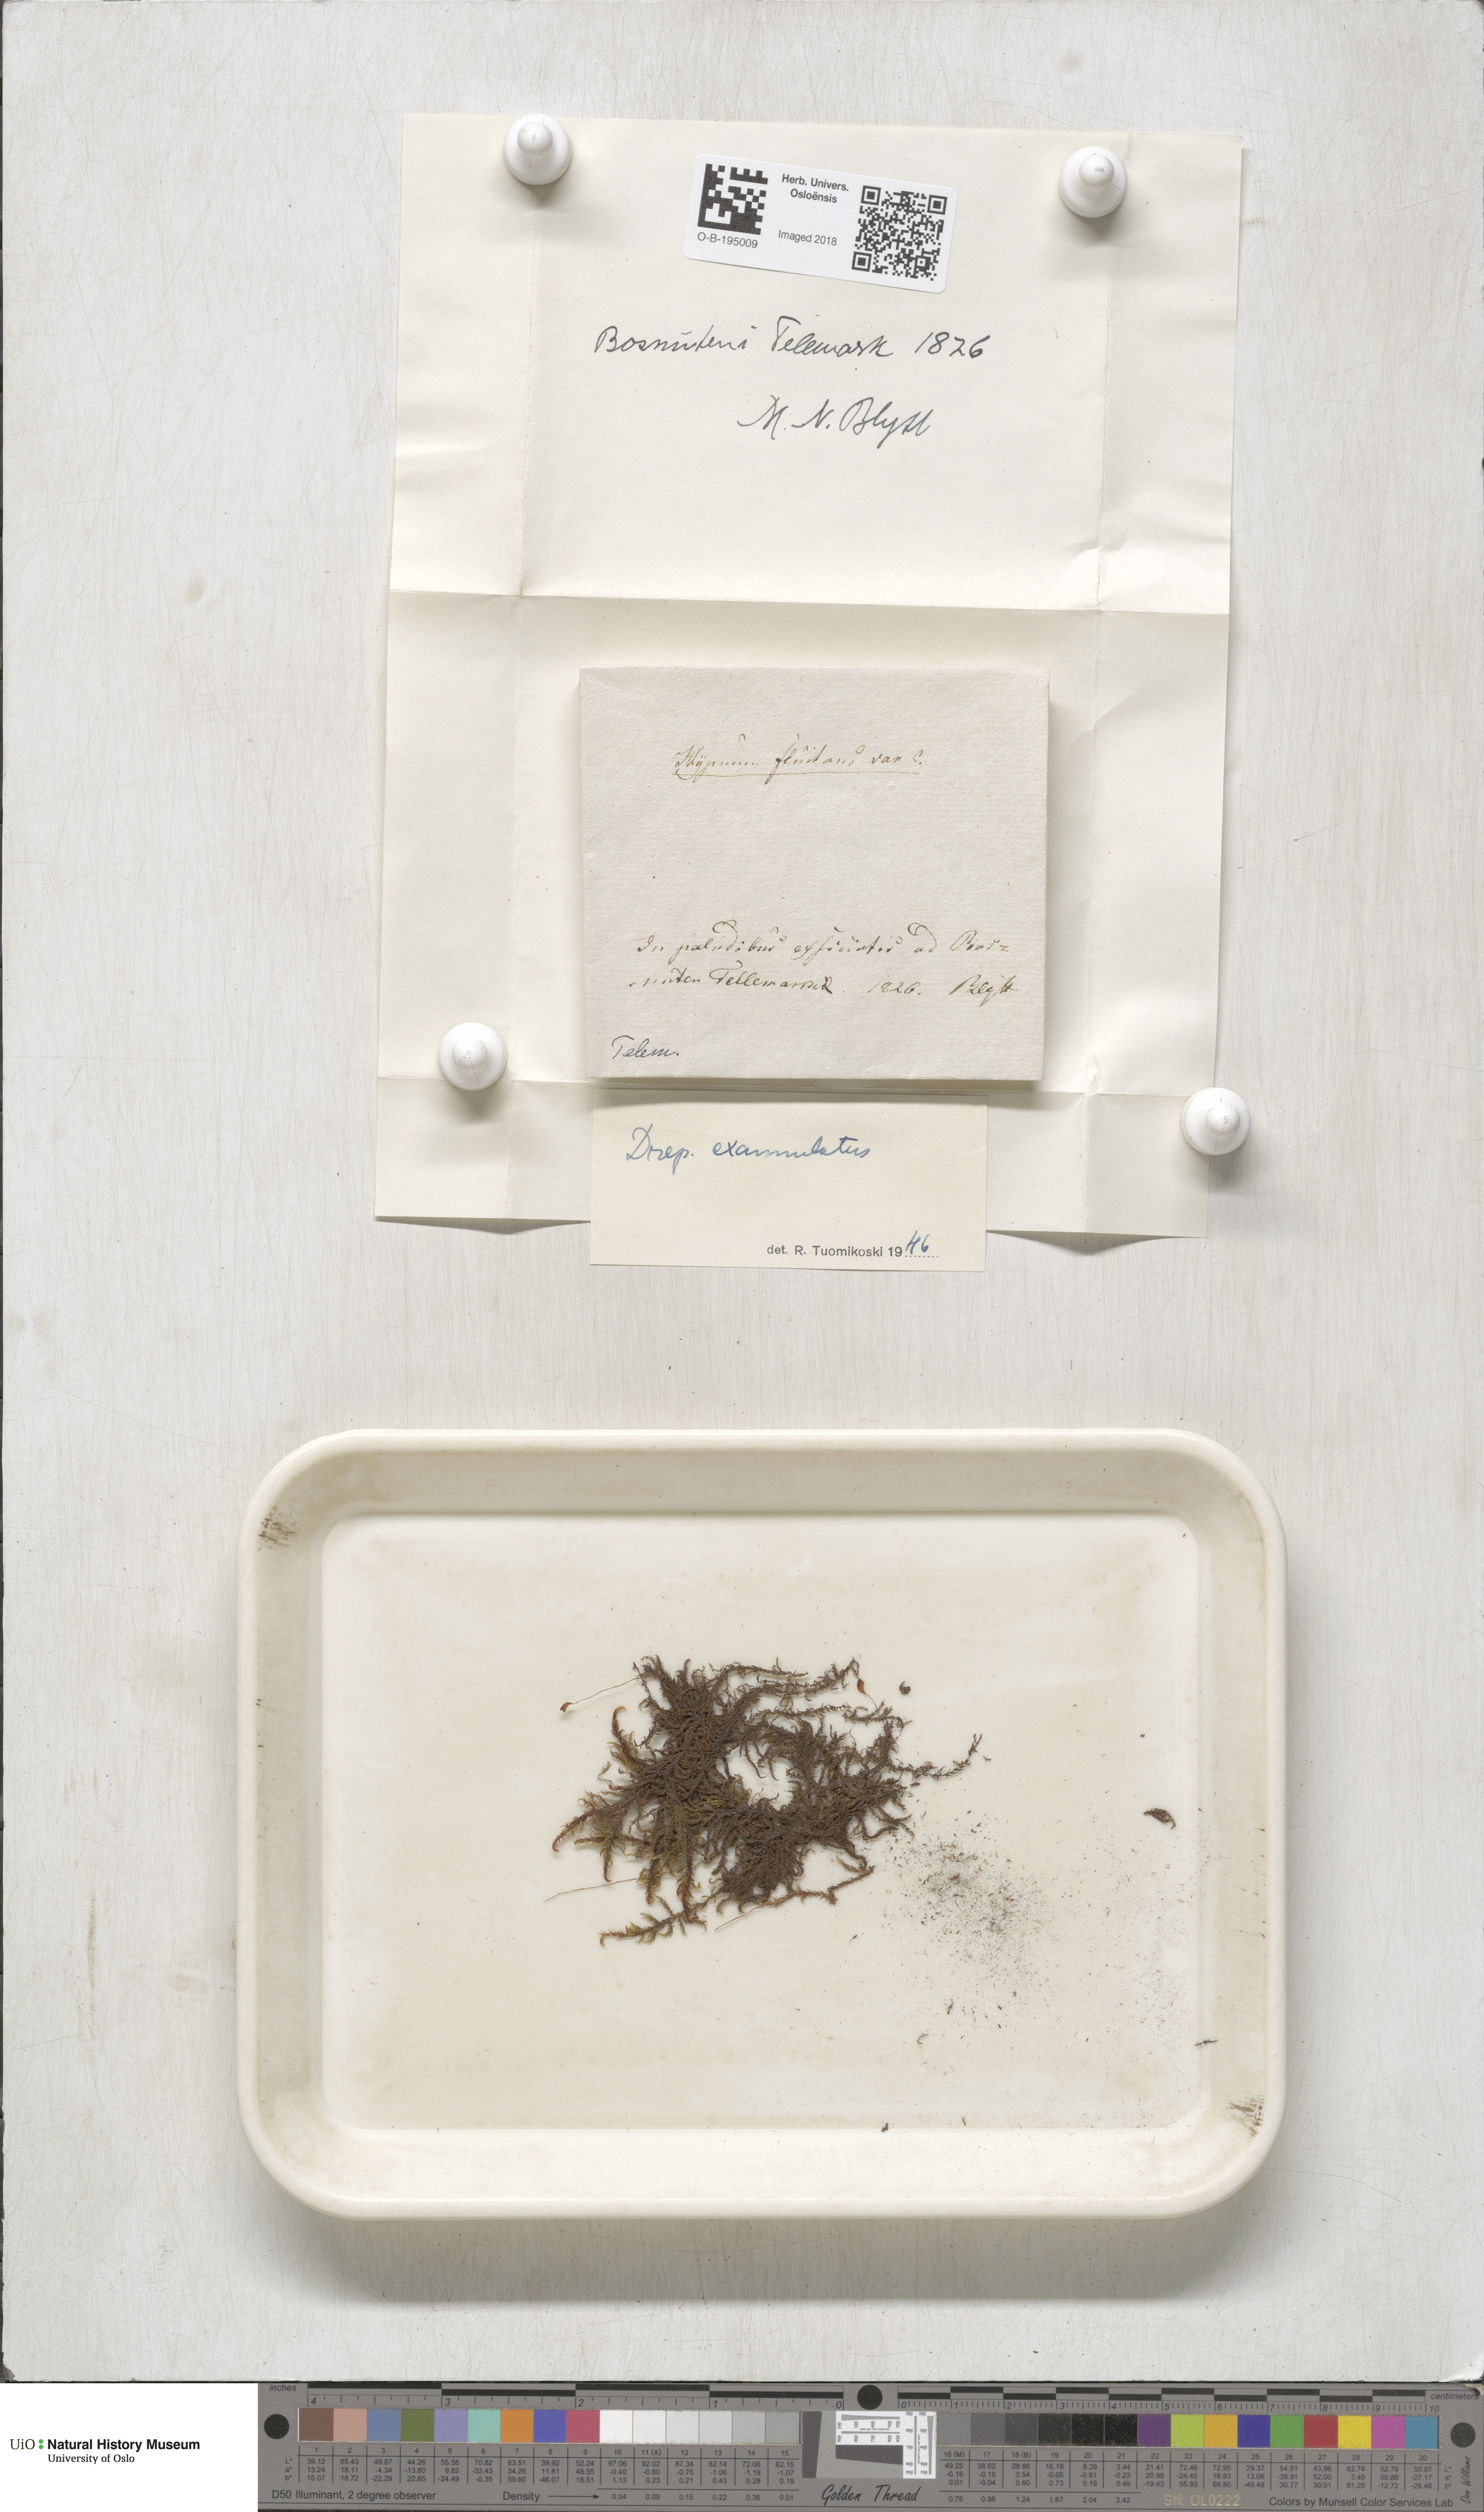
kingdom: Plantae
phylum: Bryophyta
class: Bryopsida
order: Hypnales
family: Calliergonaceae
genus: Sarmentypnum
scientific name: Sarmentypnum exannulatum
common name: Ringless spoon moss
